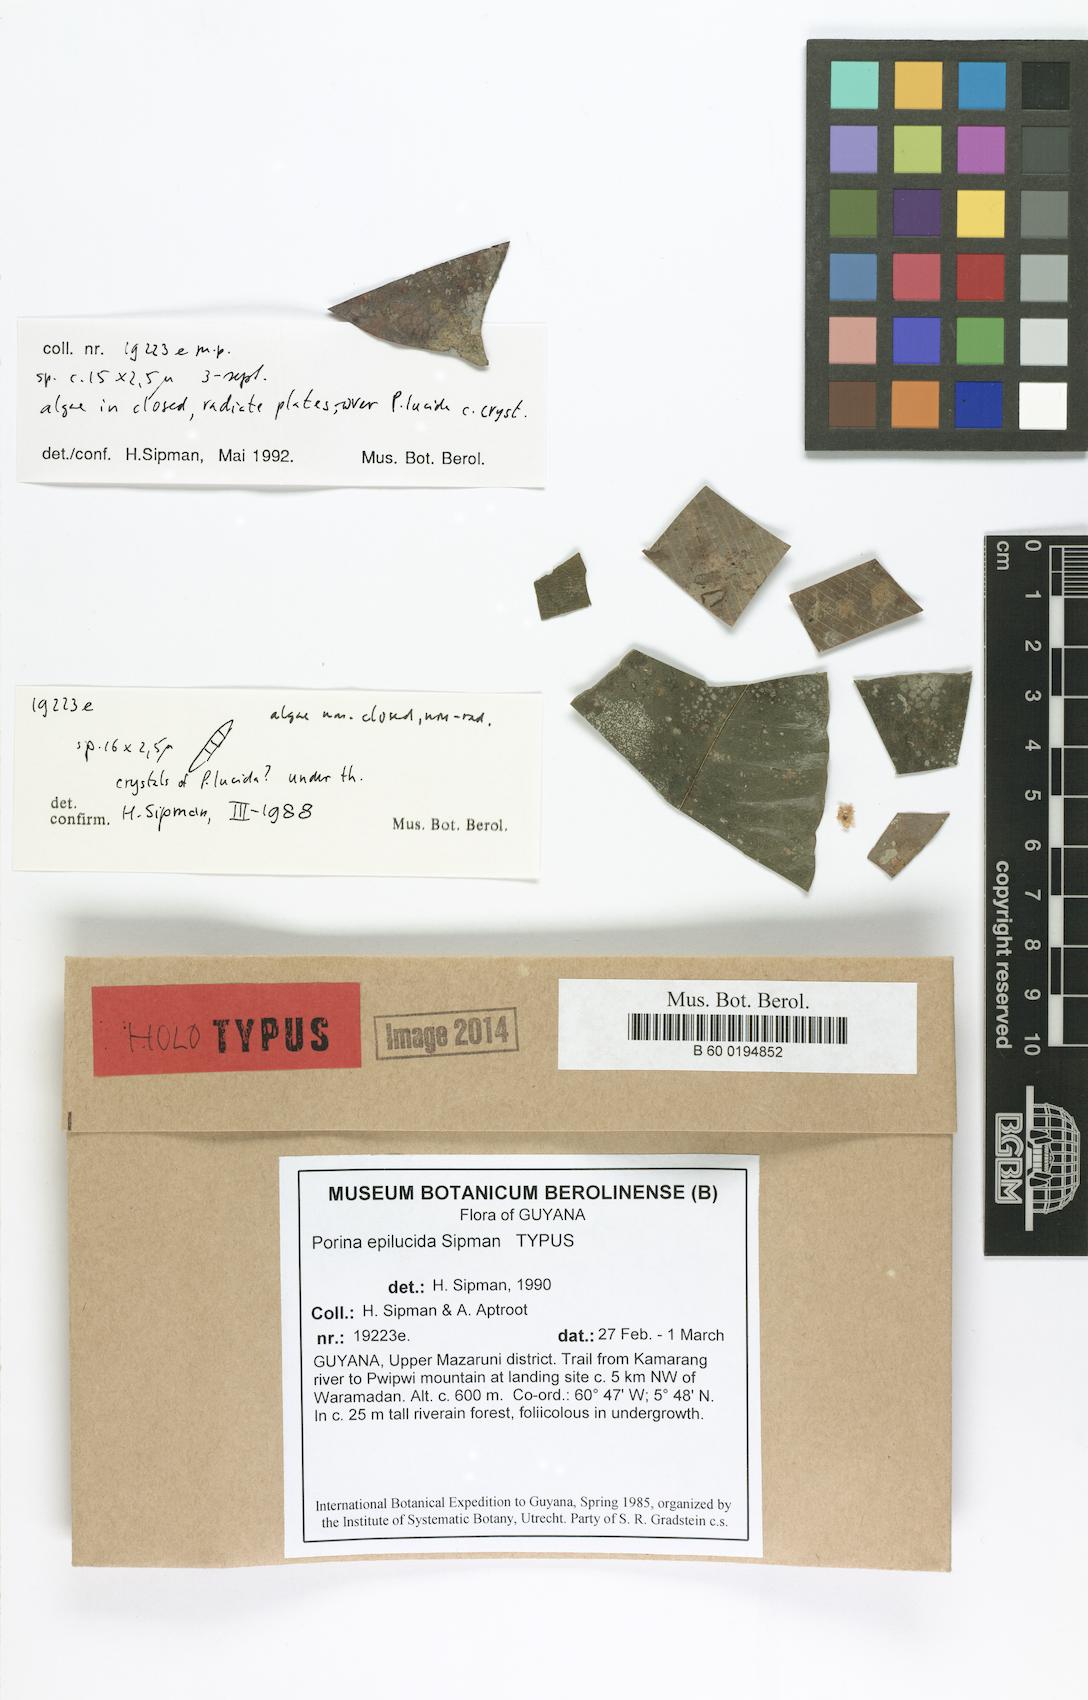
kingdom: Fungi
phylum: Ascomycota
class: Lecanoromycetes
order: Ostropales
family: Porinaceae
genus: Porina
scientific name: Porina epilucida
